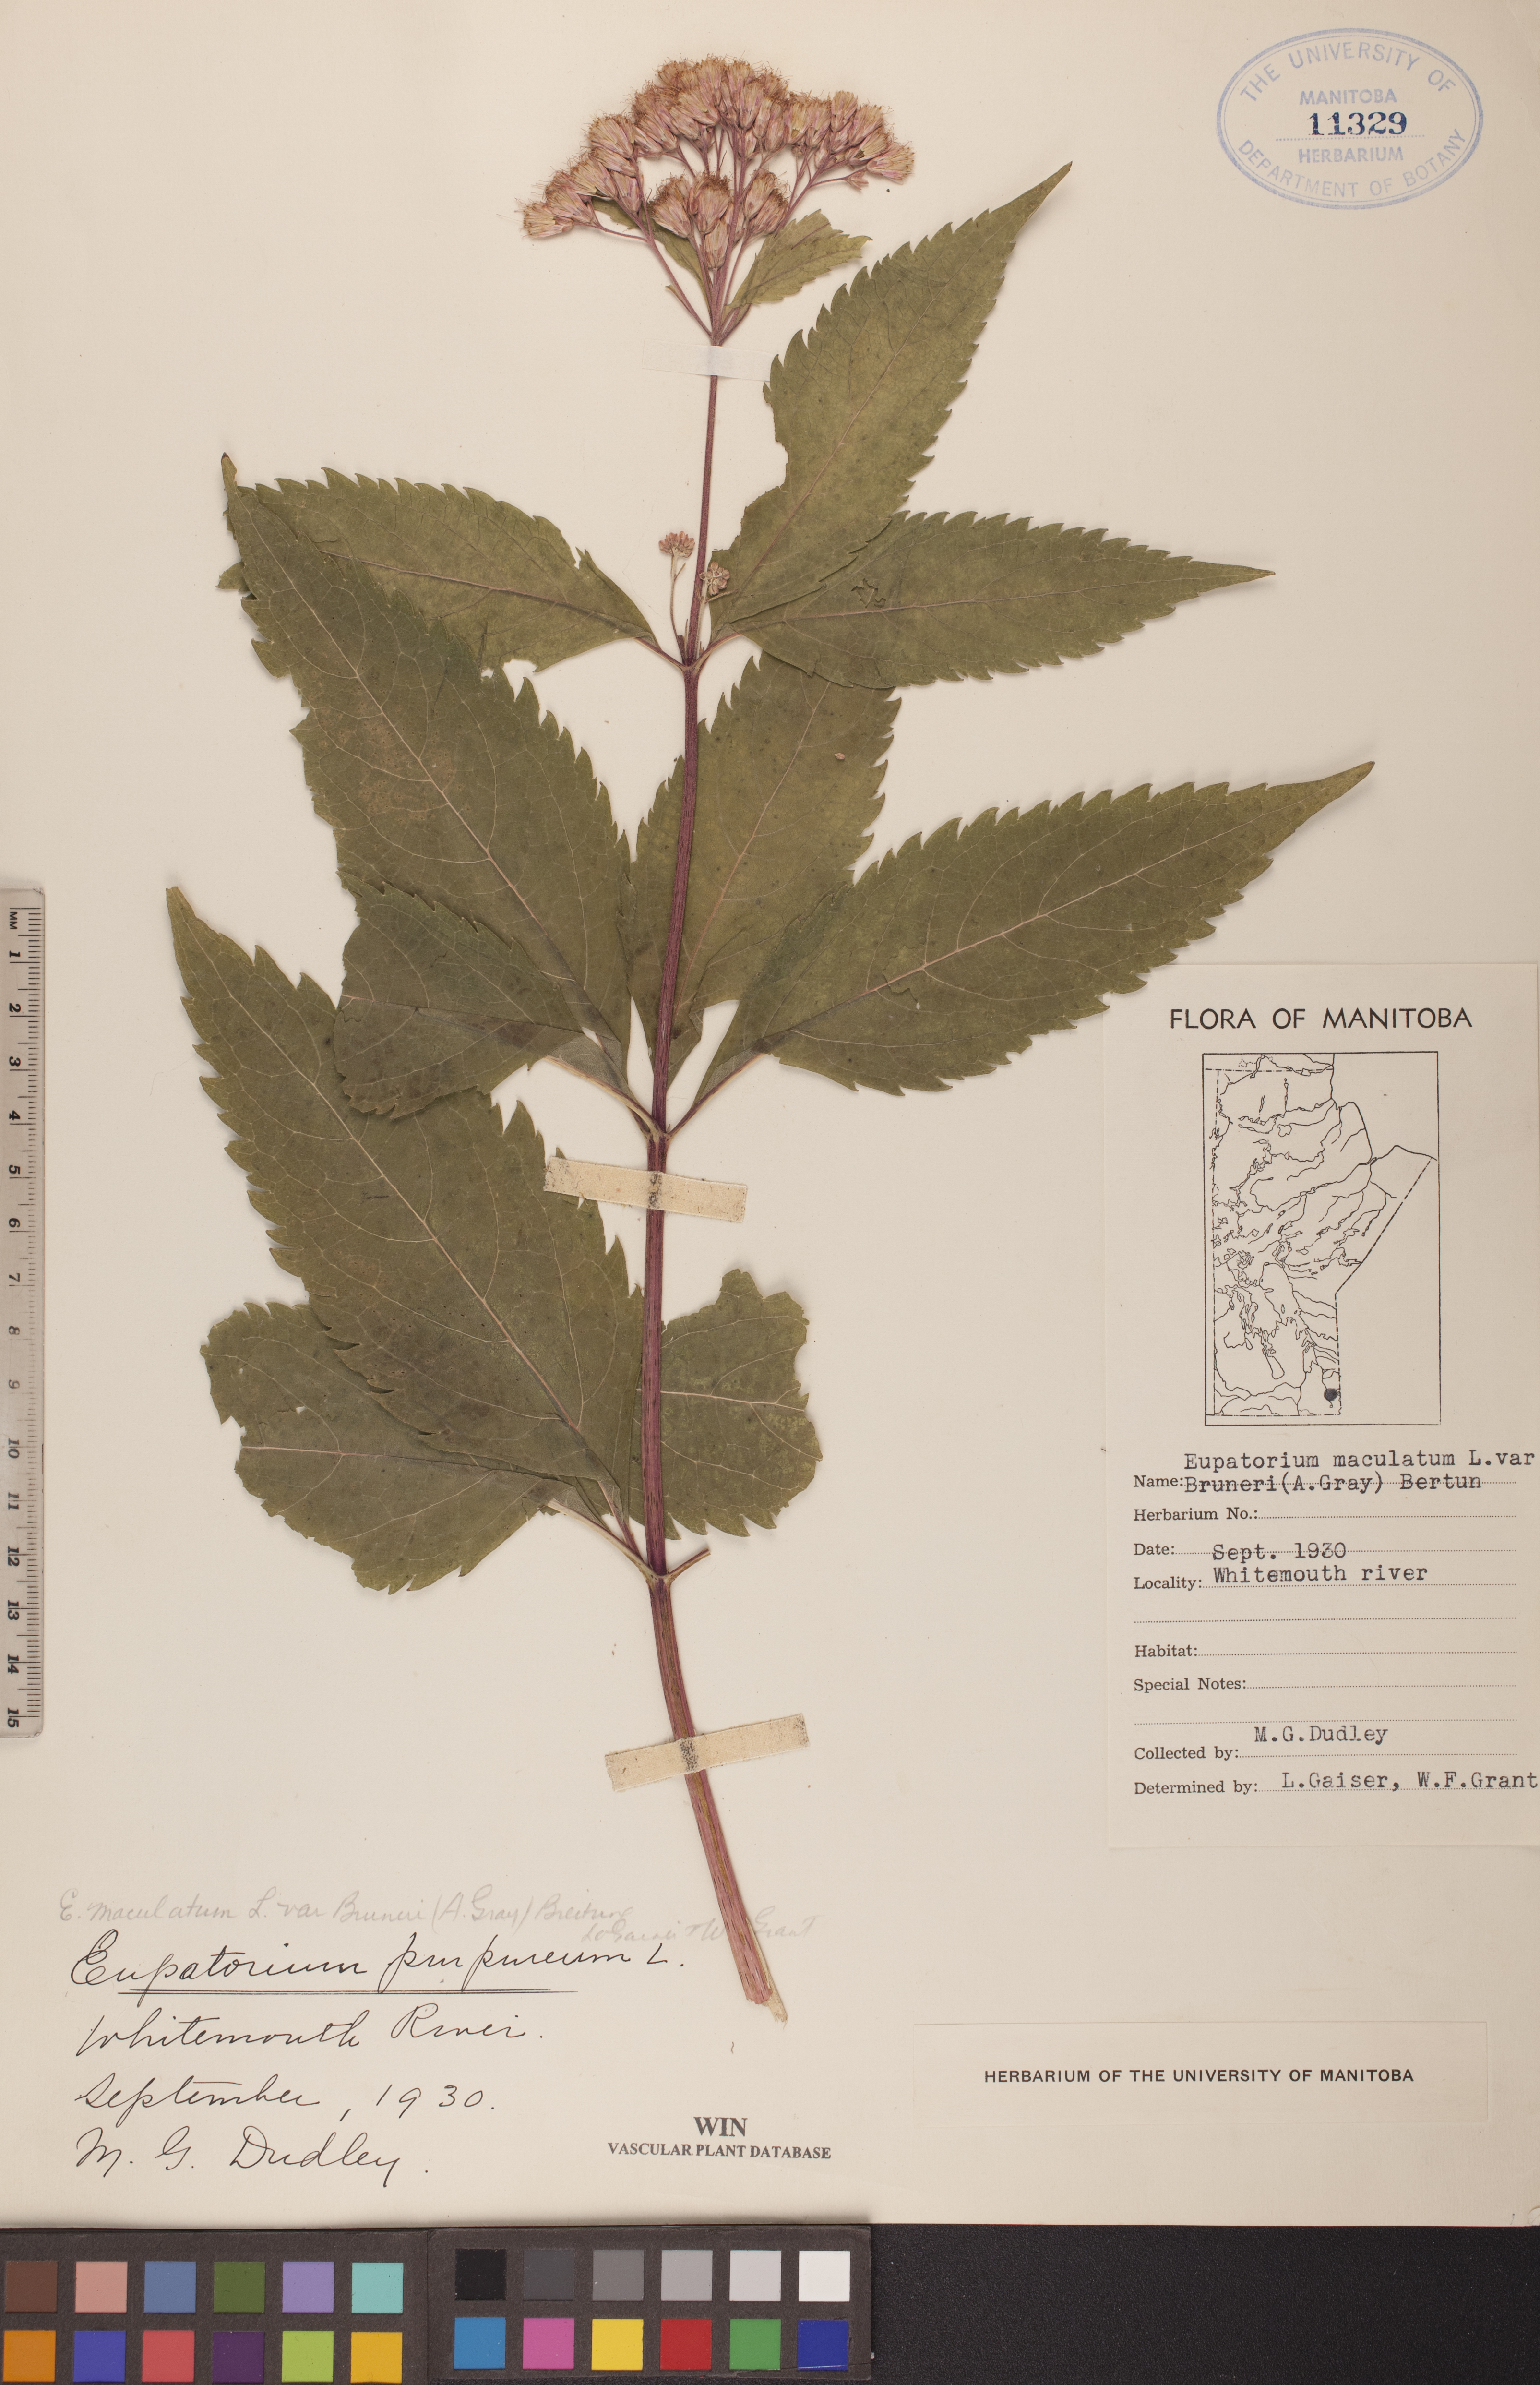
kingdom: Plantae
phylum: Tracheophyta
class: Magnoliopsida
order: Asterales
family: Asteraceae
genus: Eutrochium
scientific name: Eutrochium maculatum
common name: Spotted joe pye weed
